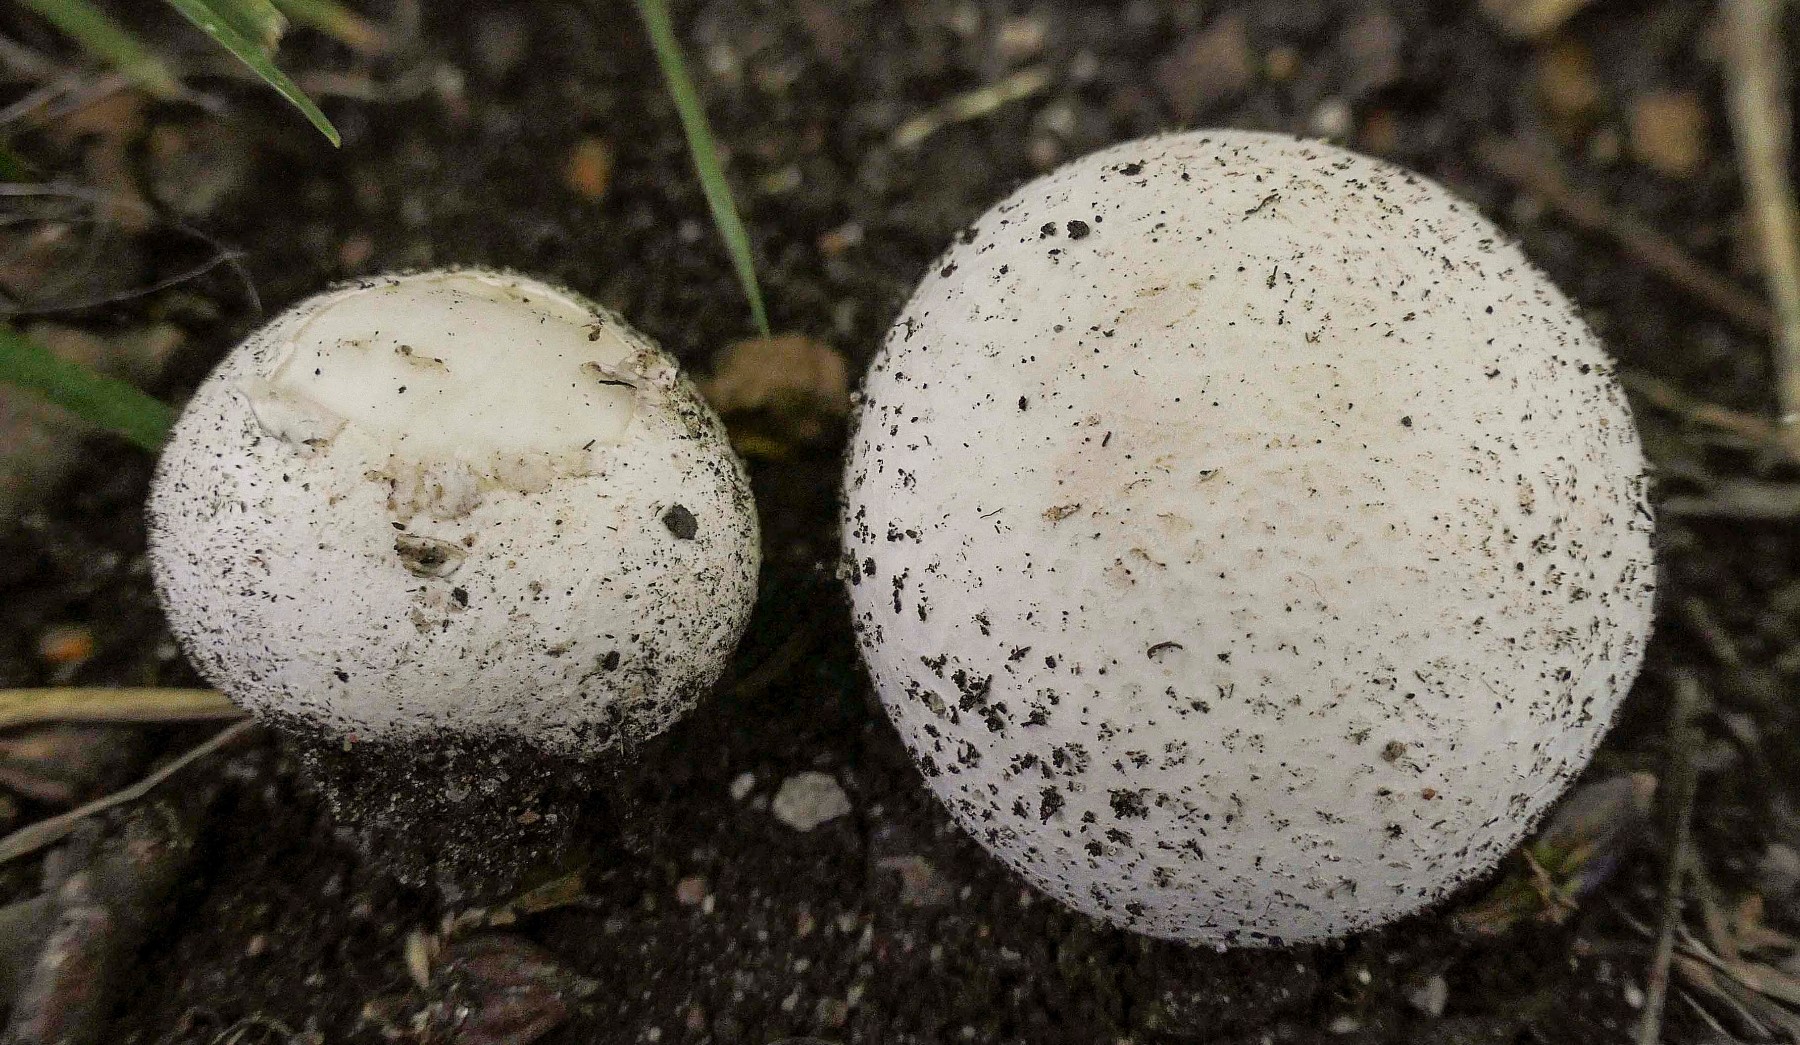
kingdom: Fungi
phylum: Basidiomycota
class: Agaricomycetes
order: Agaricales
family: Lycoperdaceae
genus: Bovista
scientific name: Bovista
